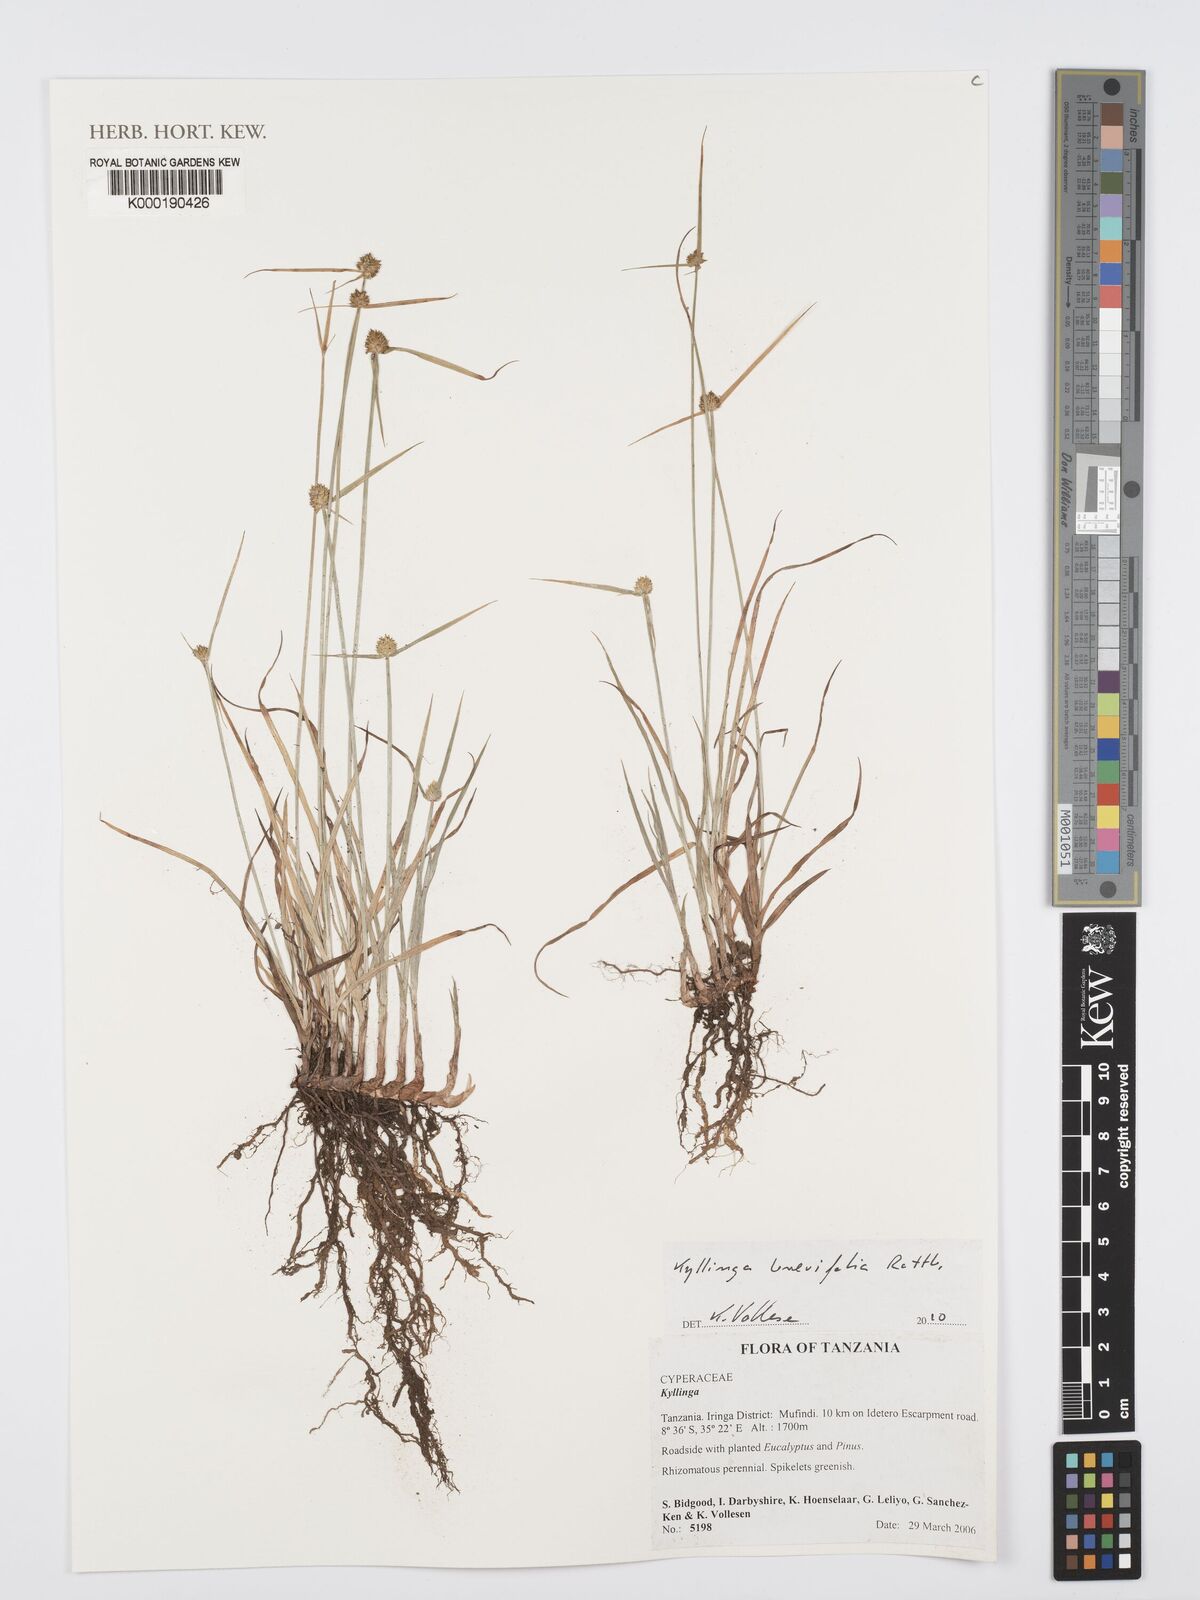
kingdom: Plantae
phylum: Tracheophyta
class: Liliopsida
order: Poales
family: Cyperaceae
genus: Cyperus
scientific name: Cyperus
